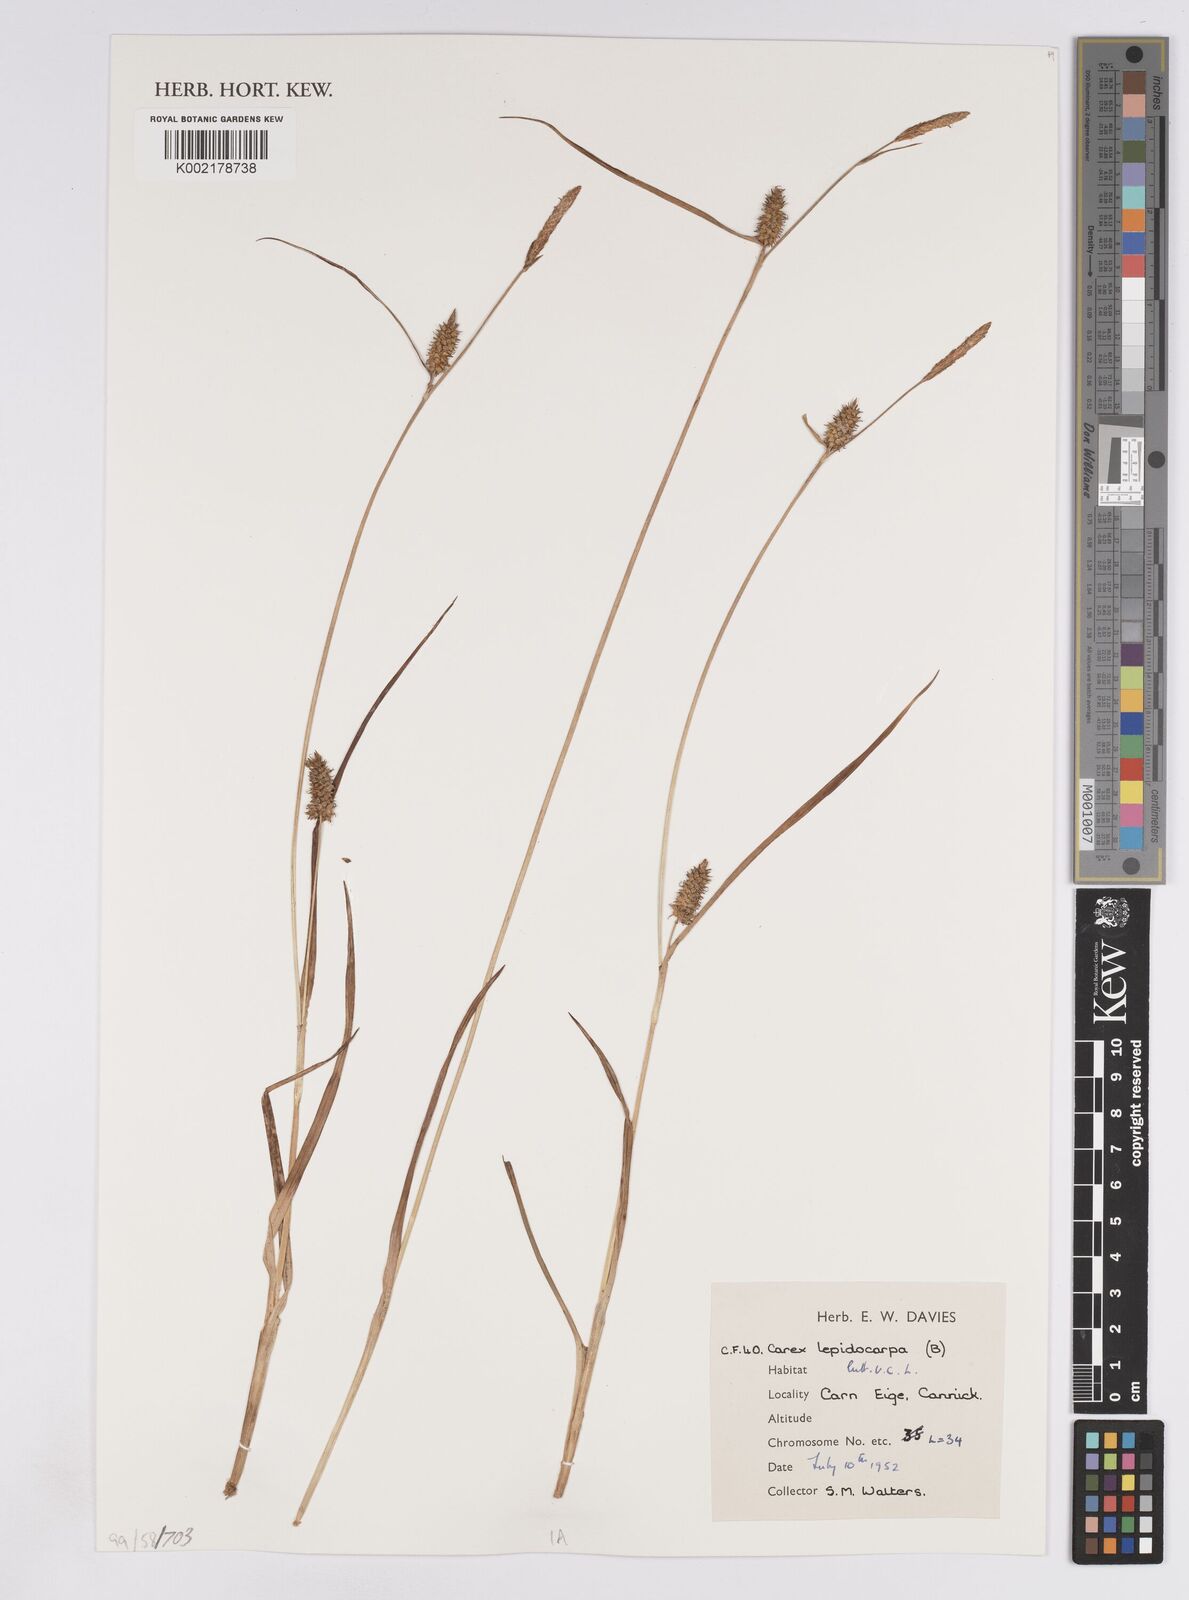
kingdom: Plantae
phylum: Tracheophyta
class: Liliopsida
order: Poales
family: Cyperaceae
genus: Carex
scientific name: Carex lepidocarpa
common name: Long-stalked yellow-sedge
